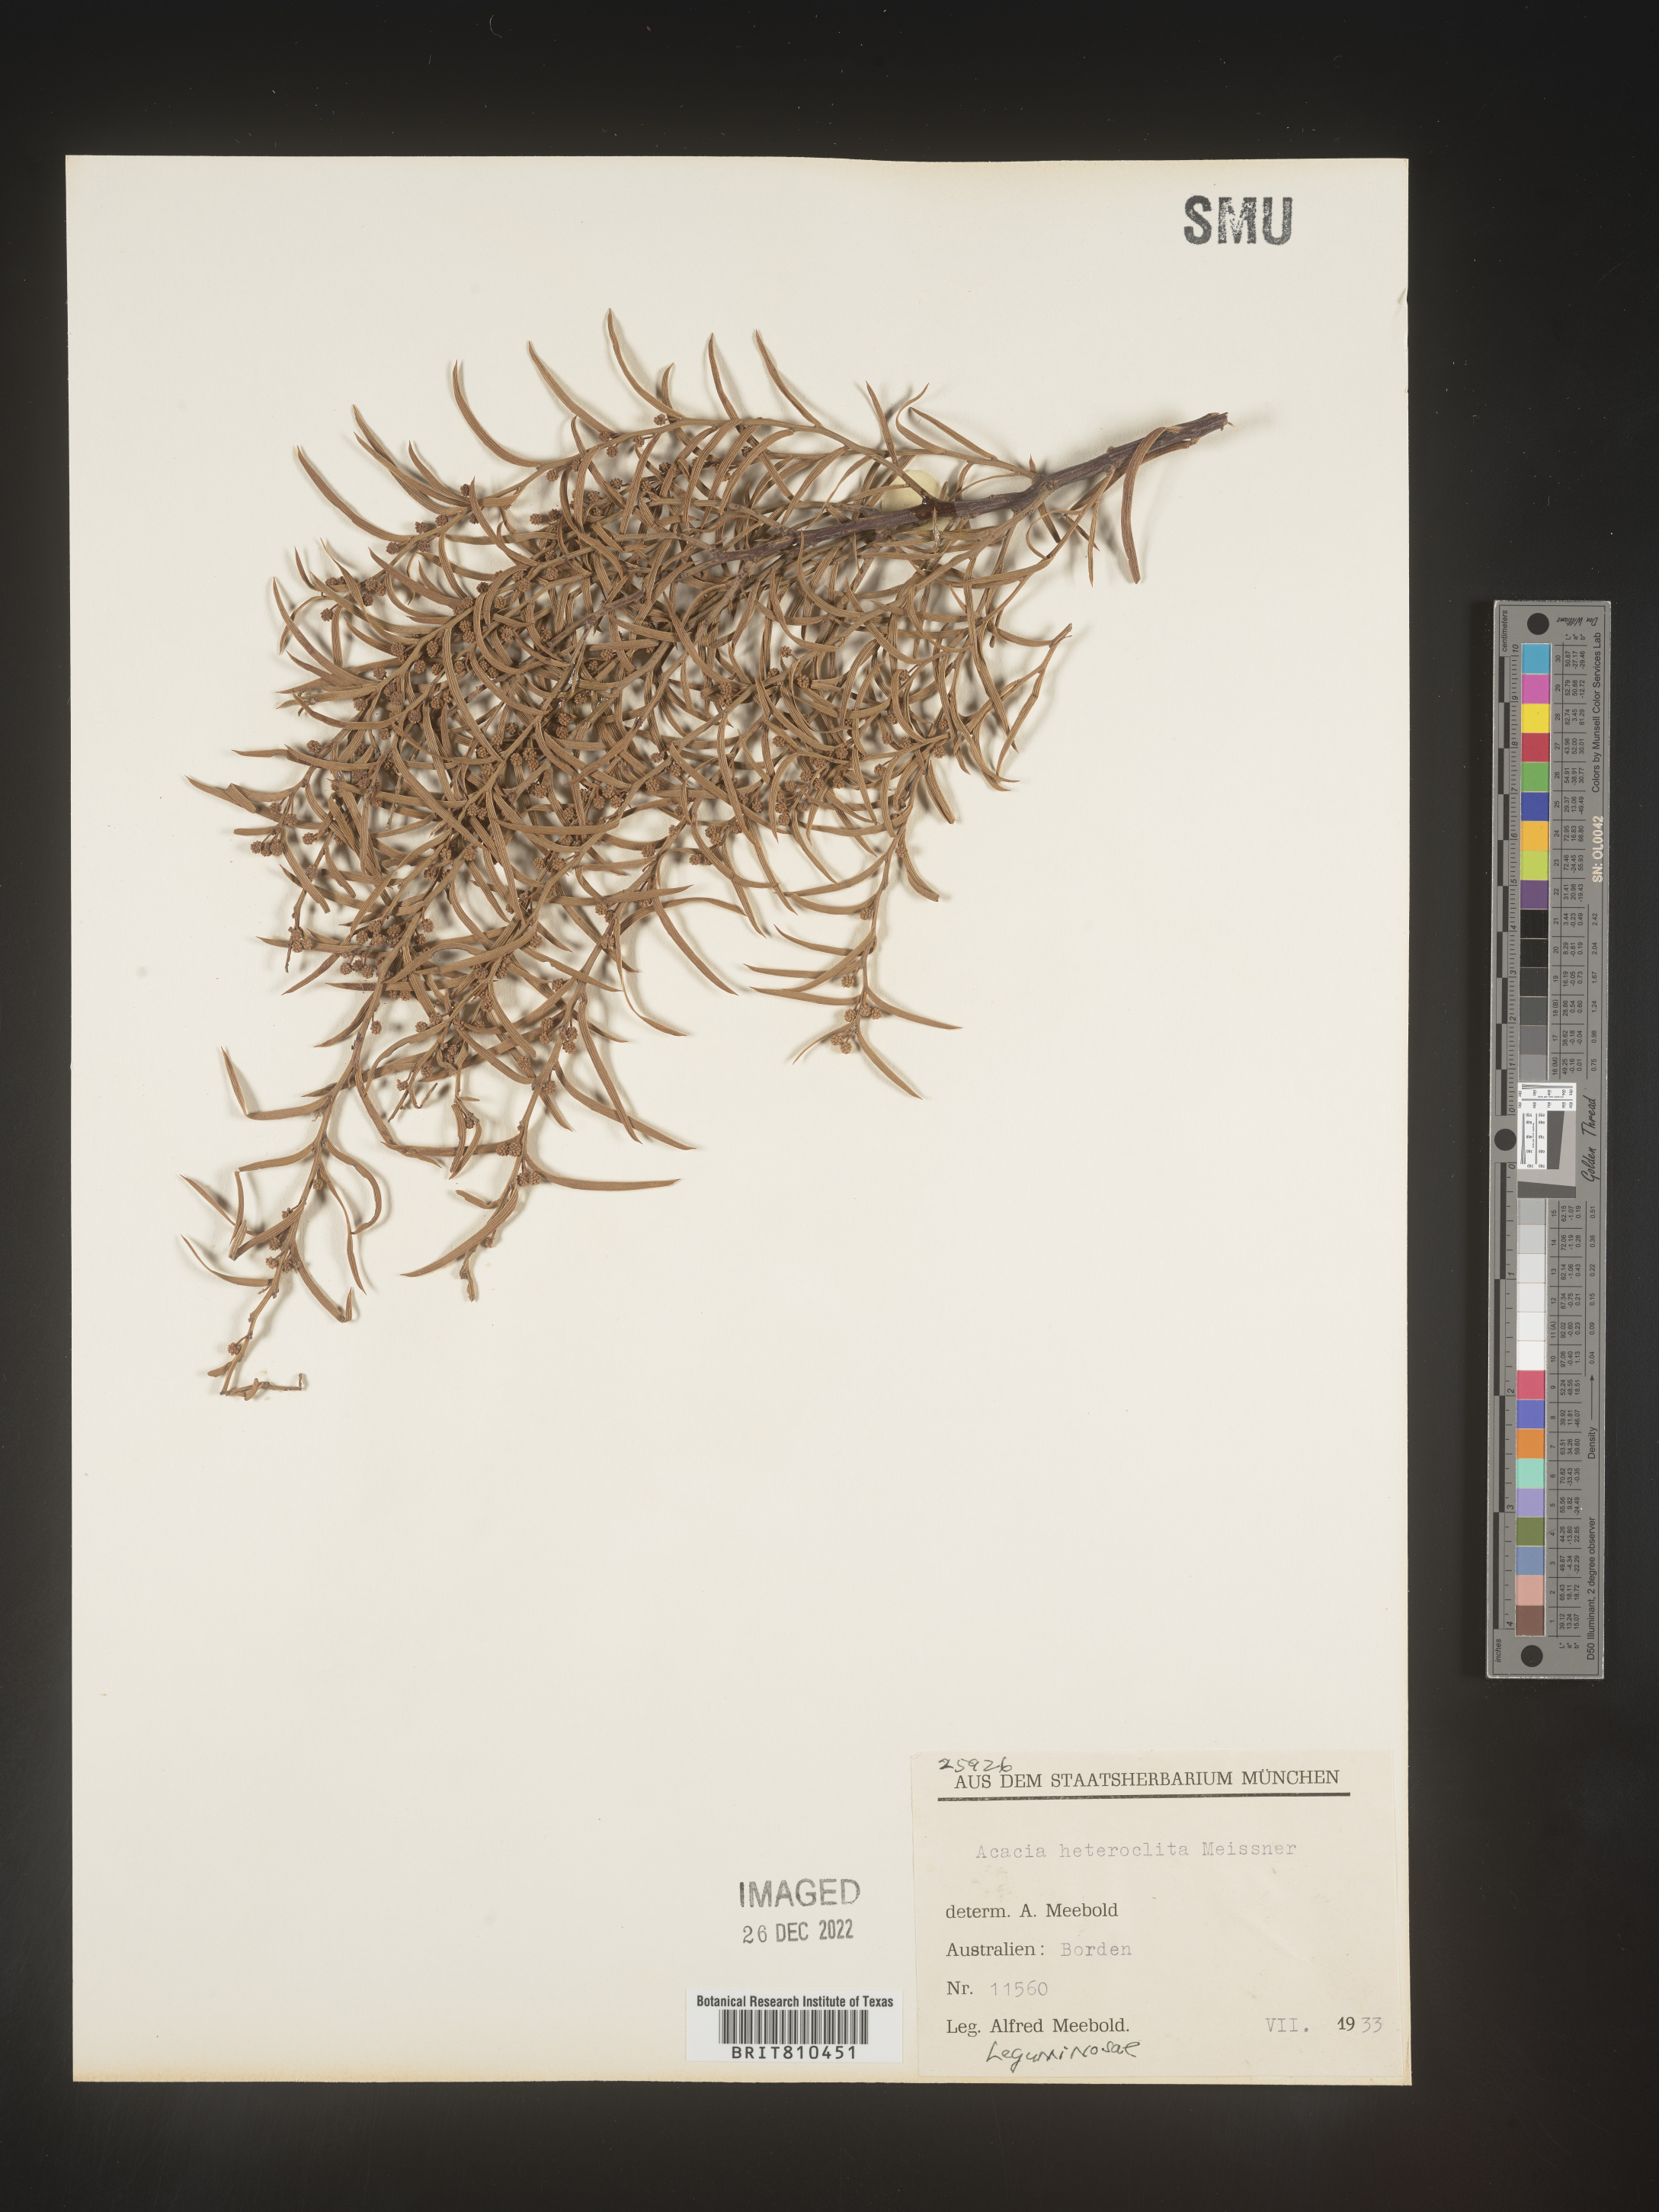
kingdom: Plantae
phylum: Tracheophyta
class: Magnoliopsida
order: Fabales
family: Fabaceae
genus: Acacia
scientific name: Acacia
